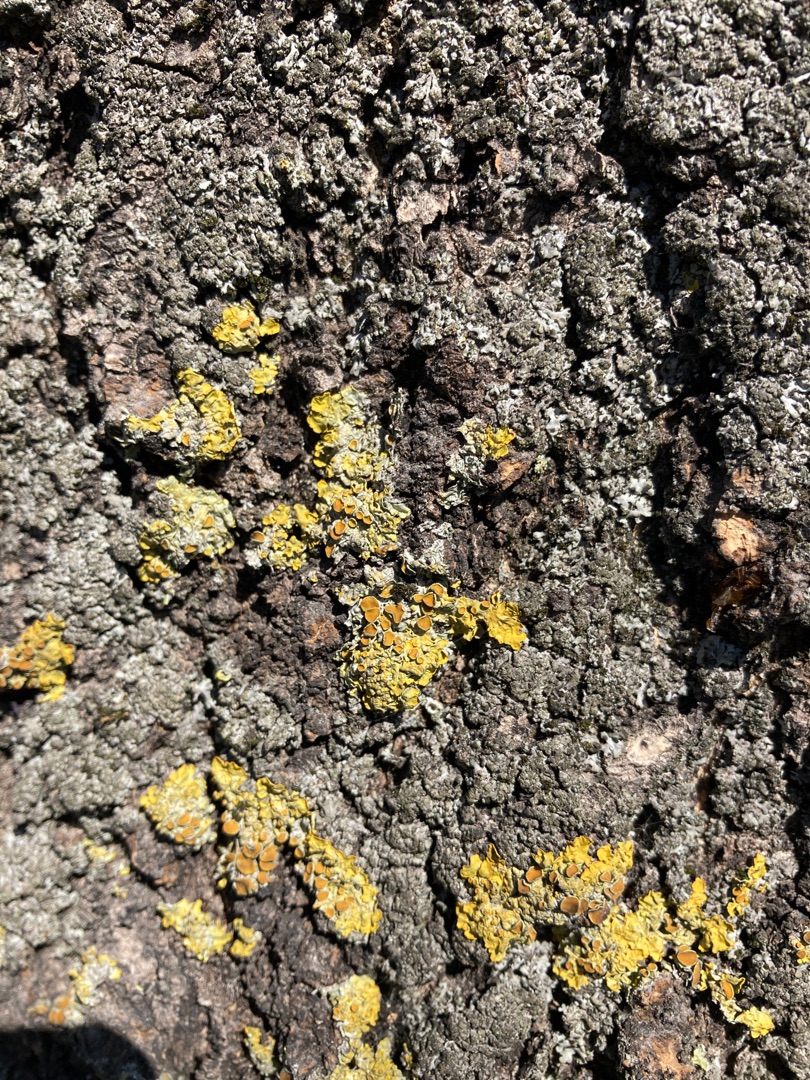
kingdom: Fungi
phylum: Ascomycota
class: Lecanoromycetes
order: Teloschistales
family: Teloschistaceae
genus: Xanthoria
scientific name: Xanthoria parietina
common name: Almindelig væggelav
